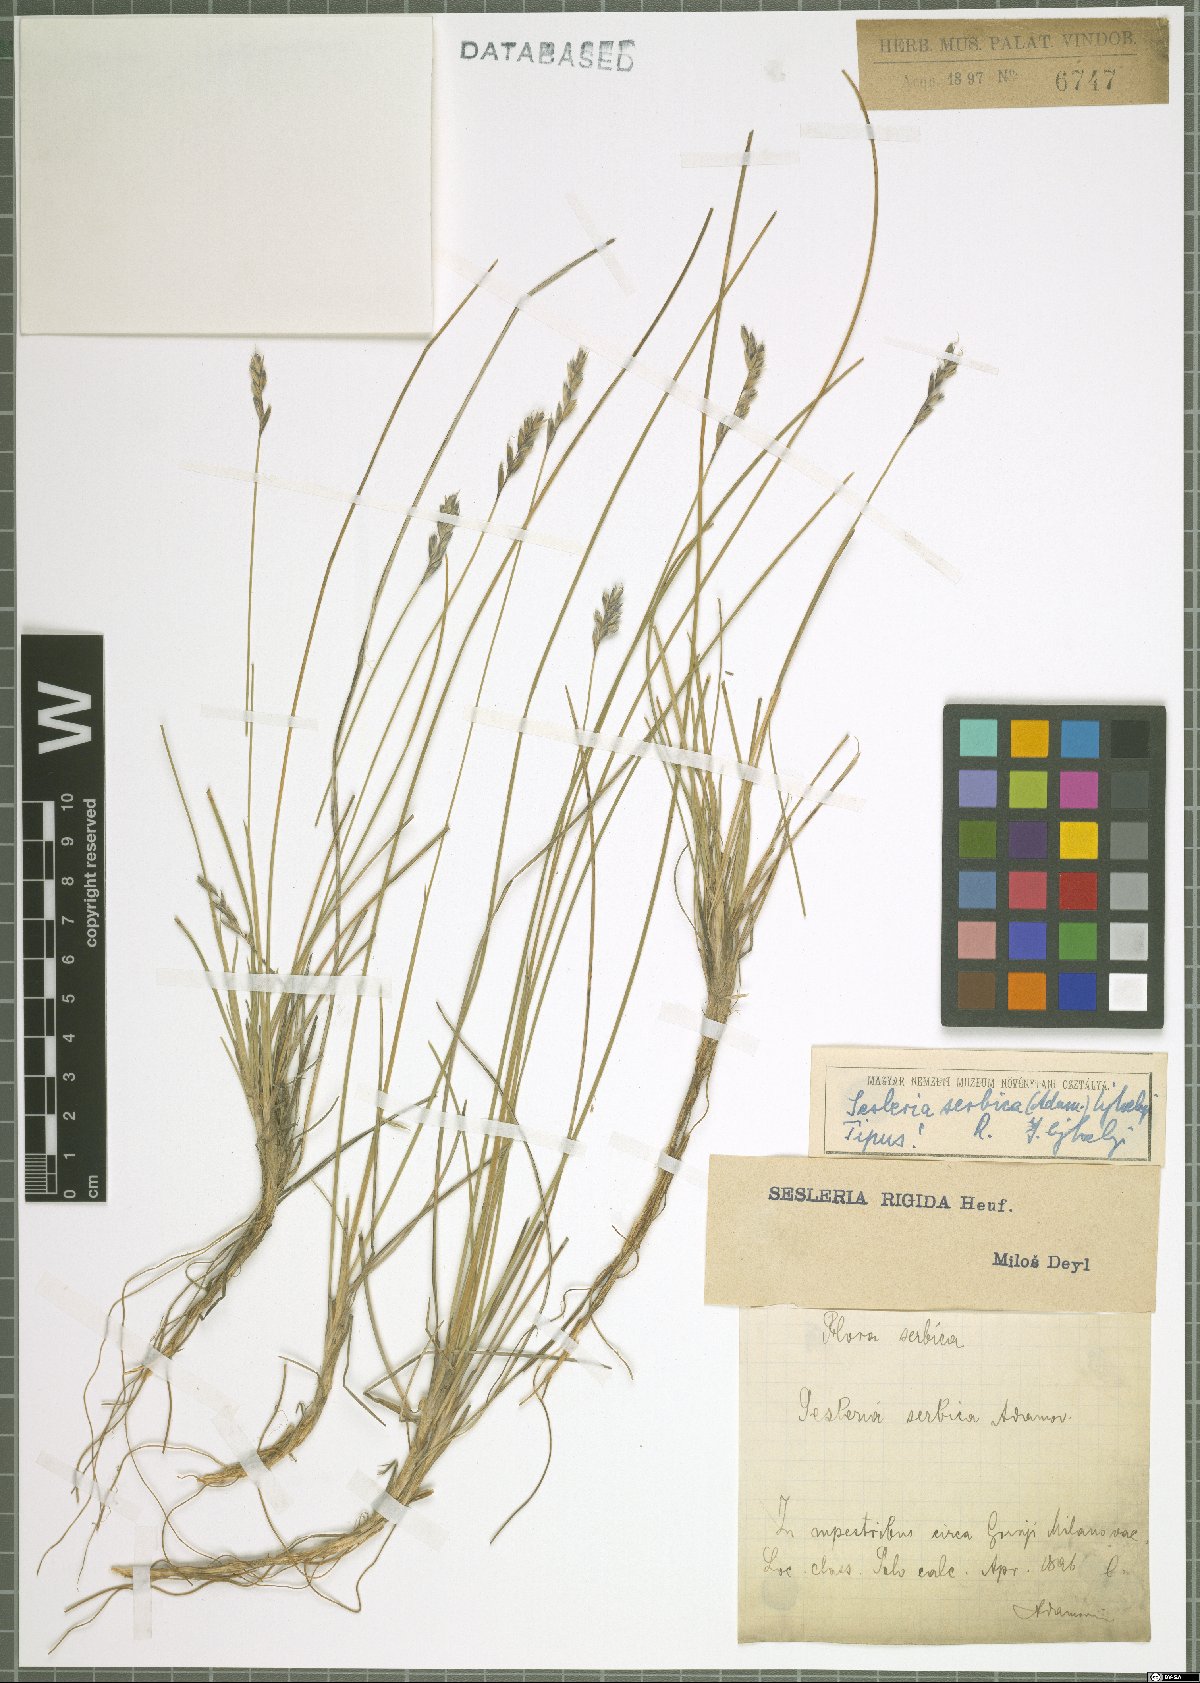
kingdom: Plantae
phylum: Tracheophyta
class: Liliopsida
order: Poales
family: Poaceae
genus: Sesleria
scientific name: Sesleria serbica
